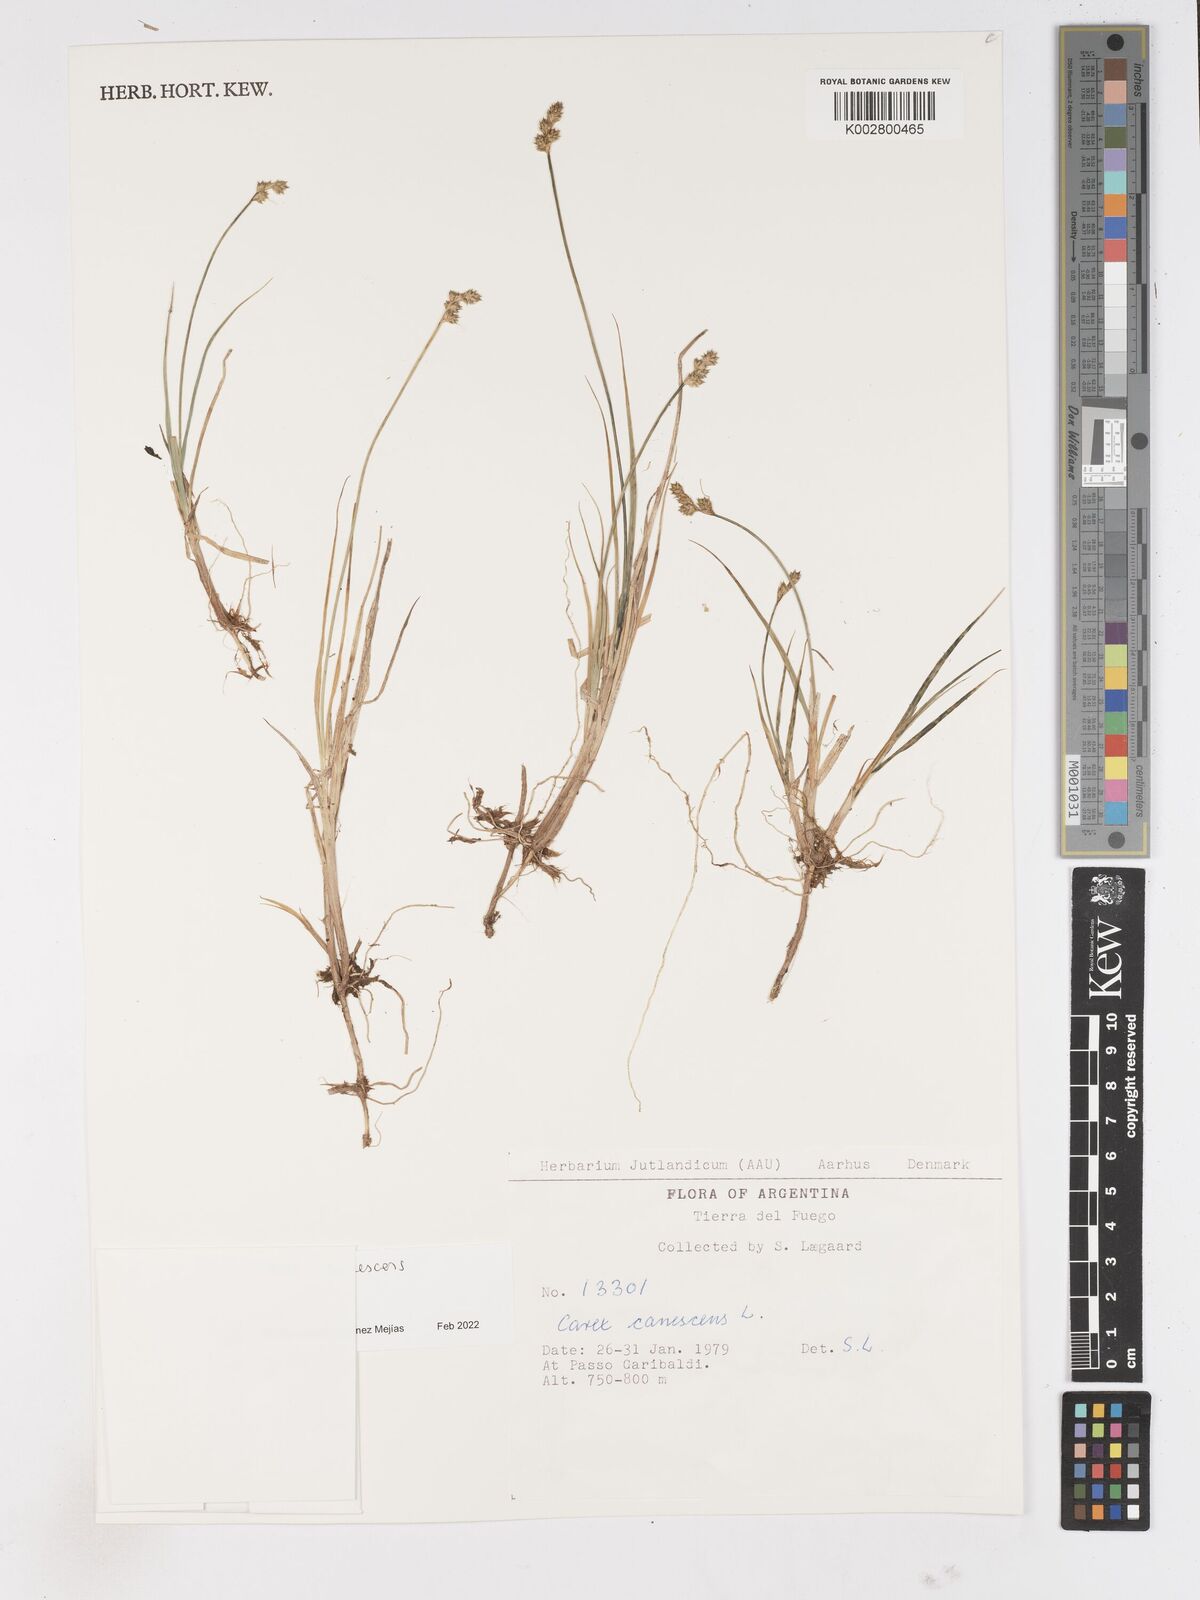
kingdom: Plantae
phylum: Tracheophyta
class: Liliopsida
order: Poales
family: Cyperaceae
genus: Carex
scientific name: Carex
